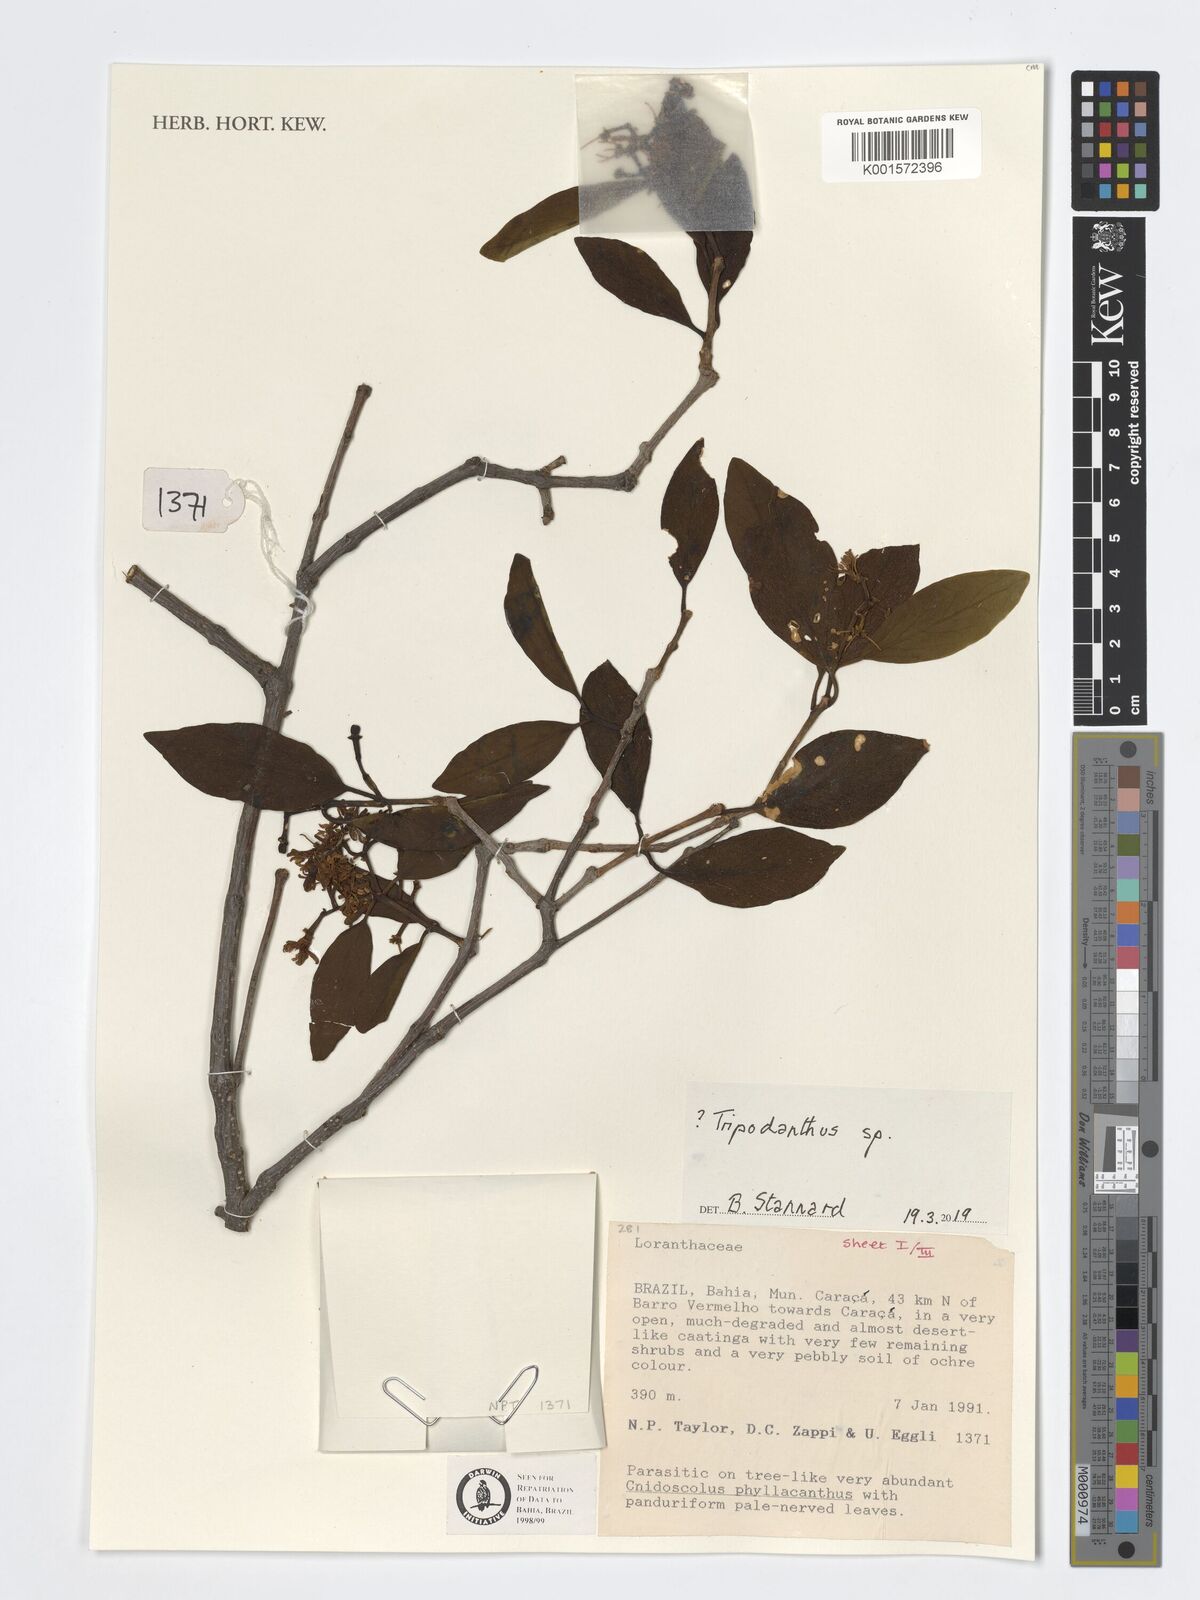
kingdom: Plantae
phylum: Tracheophyta
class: Magnoliopsida
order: Santalales
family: Loranthaceae
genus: Tripodanthus
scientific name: Tripodanthus
